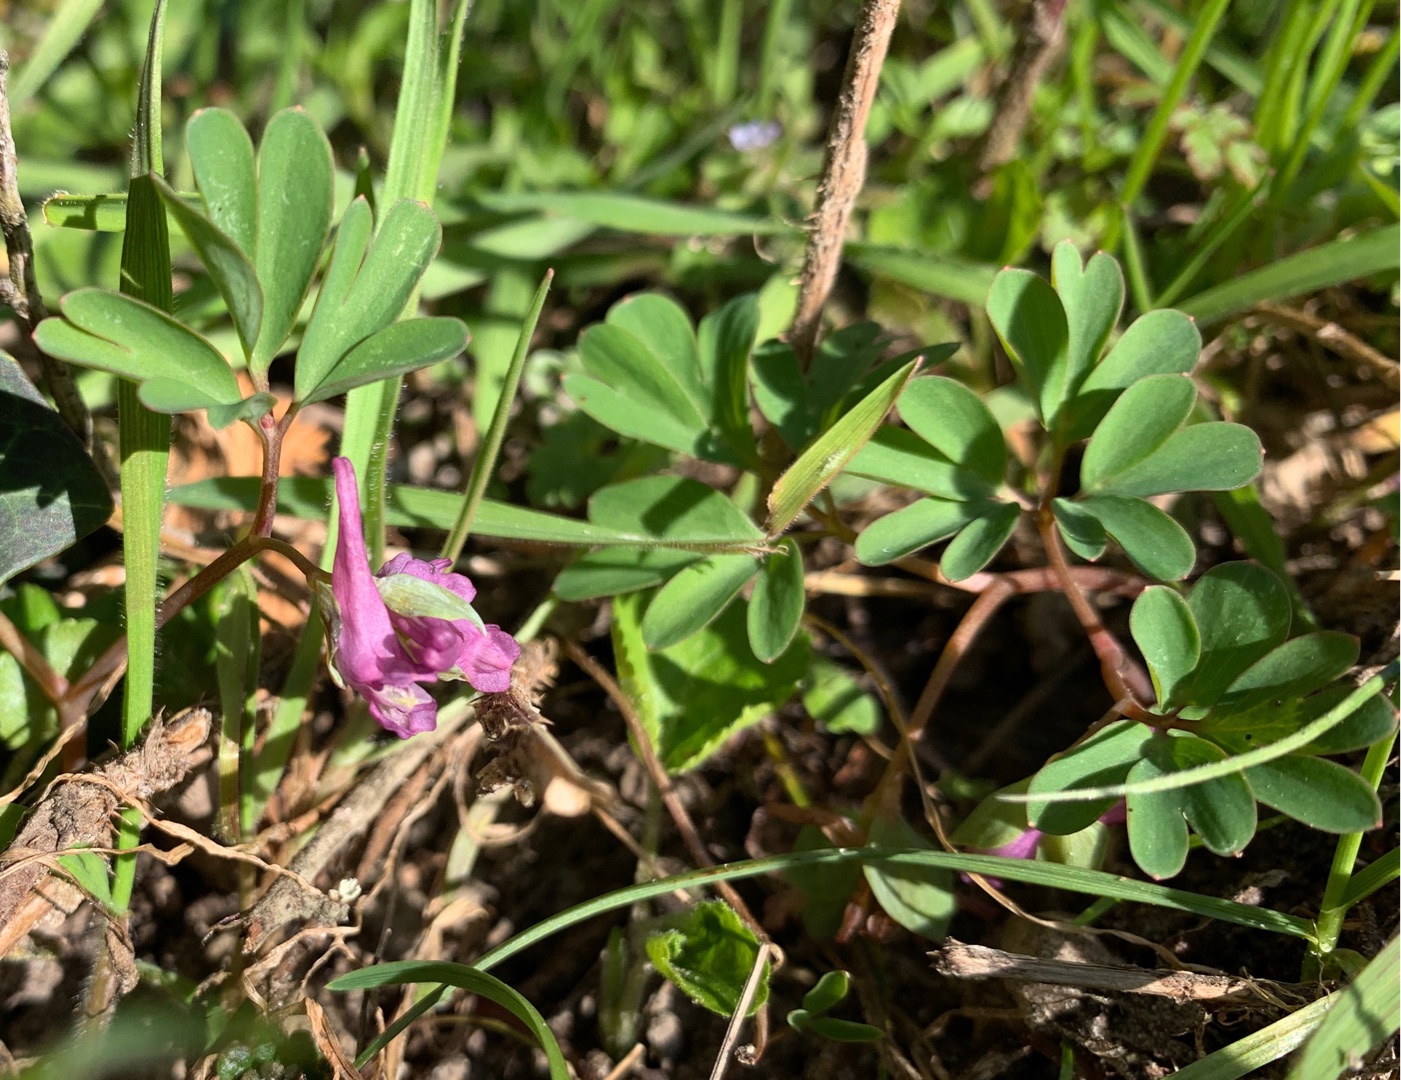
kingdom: Plantae
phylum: Tracheophyta
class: Magnoliopsida
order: Ranunculales
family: Papaveraceae
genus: Corydalis
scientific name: Corydalis intermedia
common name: Liden lærkespore
